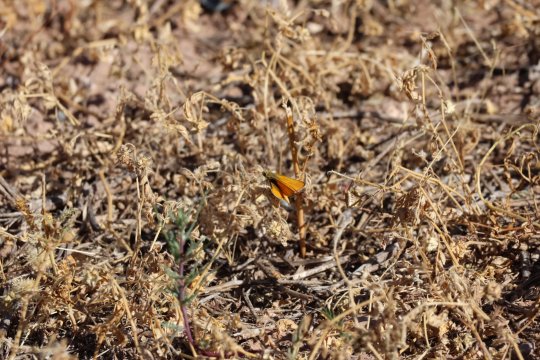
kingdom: Animalia
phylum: Arthropoda
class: Insecta
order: Lepidoptera
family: Hesperiidae
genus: Ancyloxypha
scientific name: Ancyloxypha arene
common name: Tropical Least Skipper
